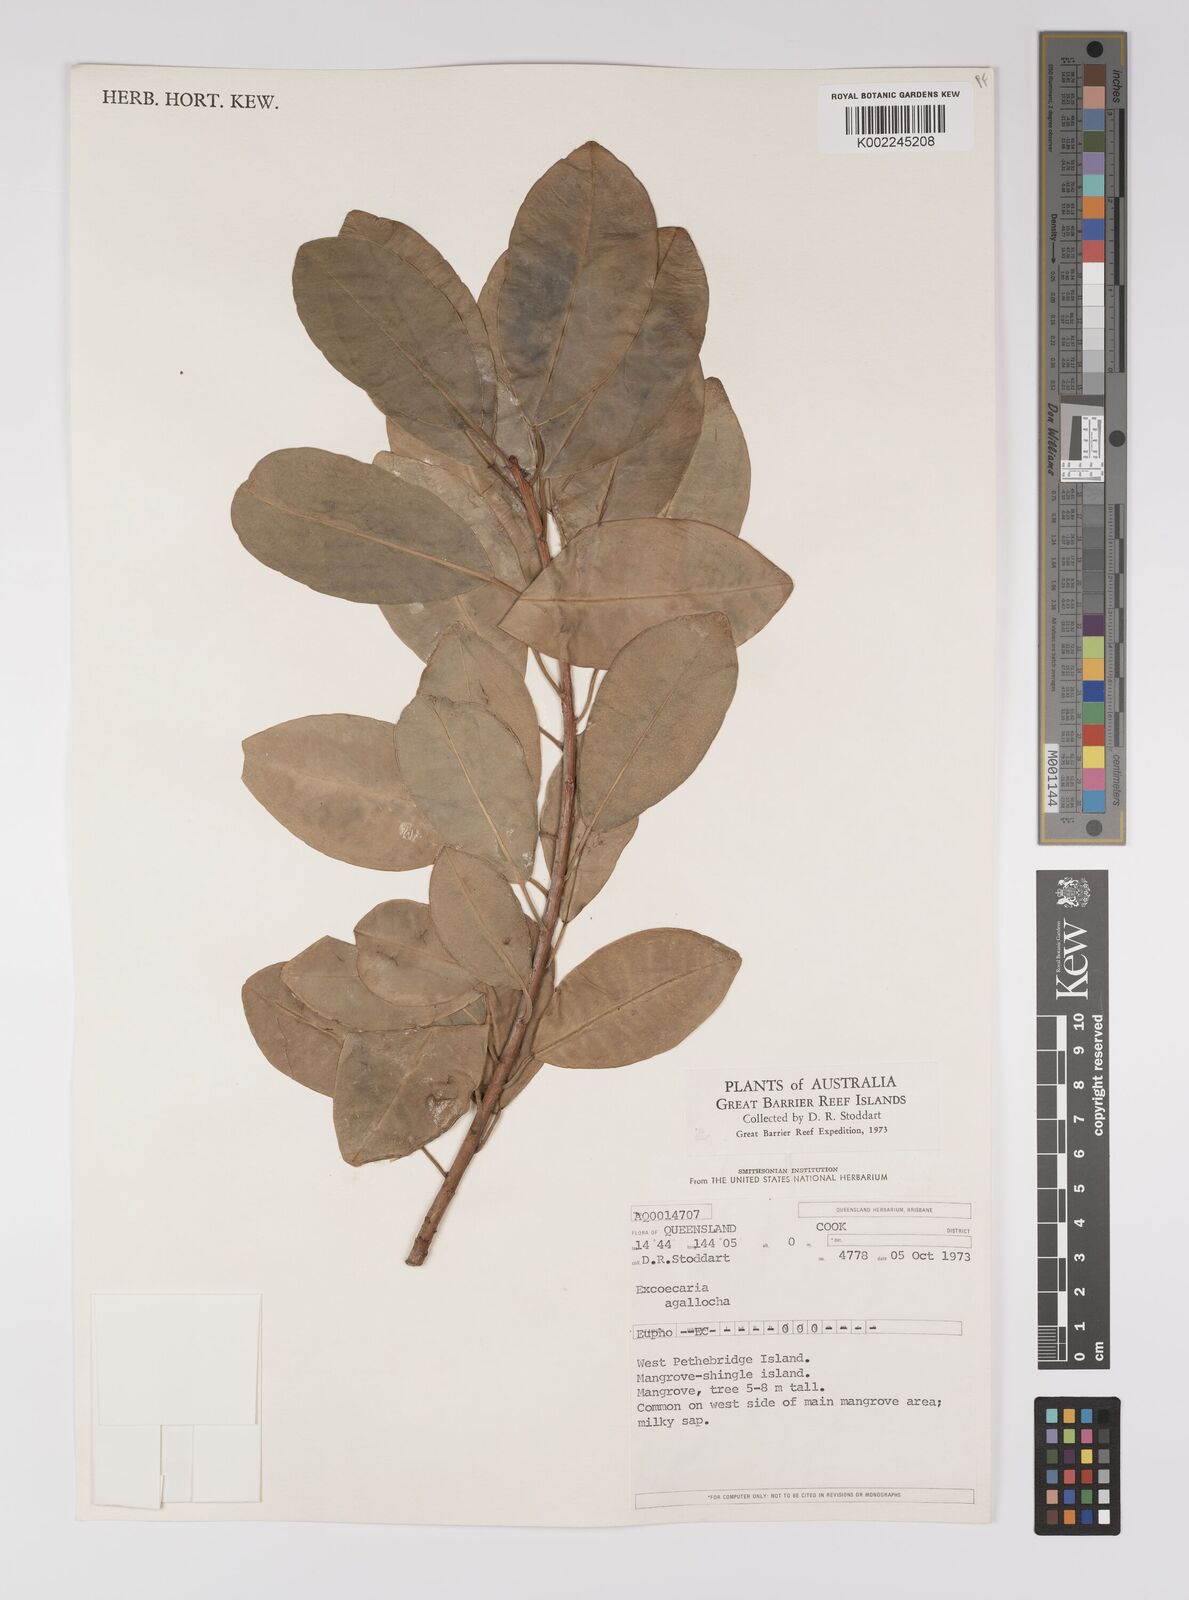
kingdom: Plantae
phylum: Tracheophyta
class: Magnoliopsida
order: Malpighiales
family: Euphorbiaceae
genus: Excoecaria
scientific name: Excoecaria agallocha
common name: River poisontree
